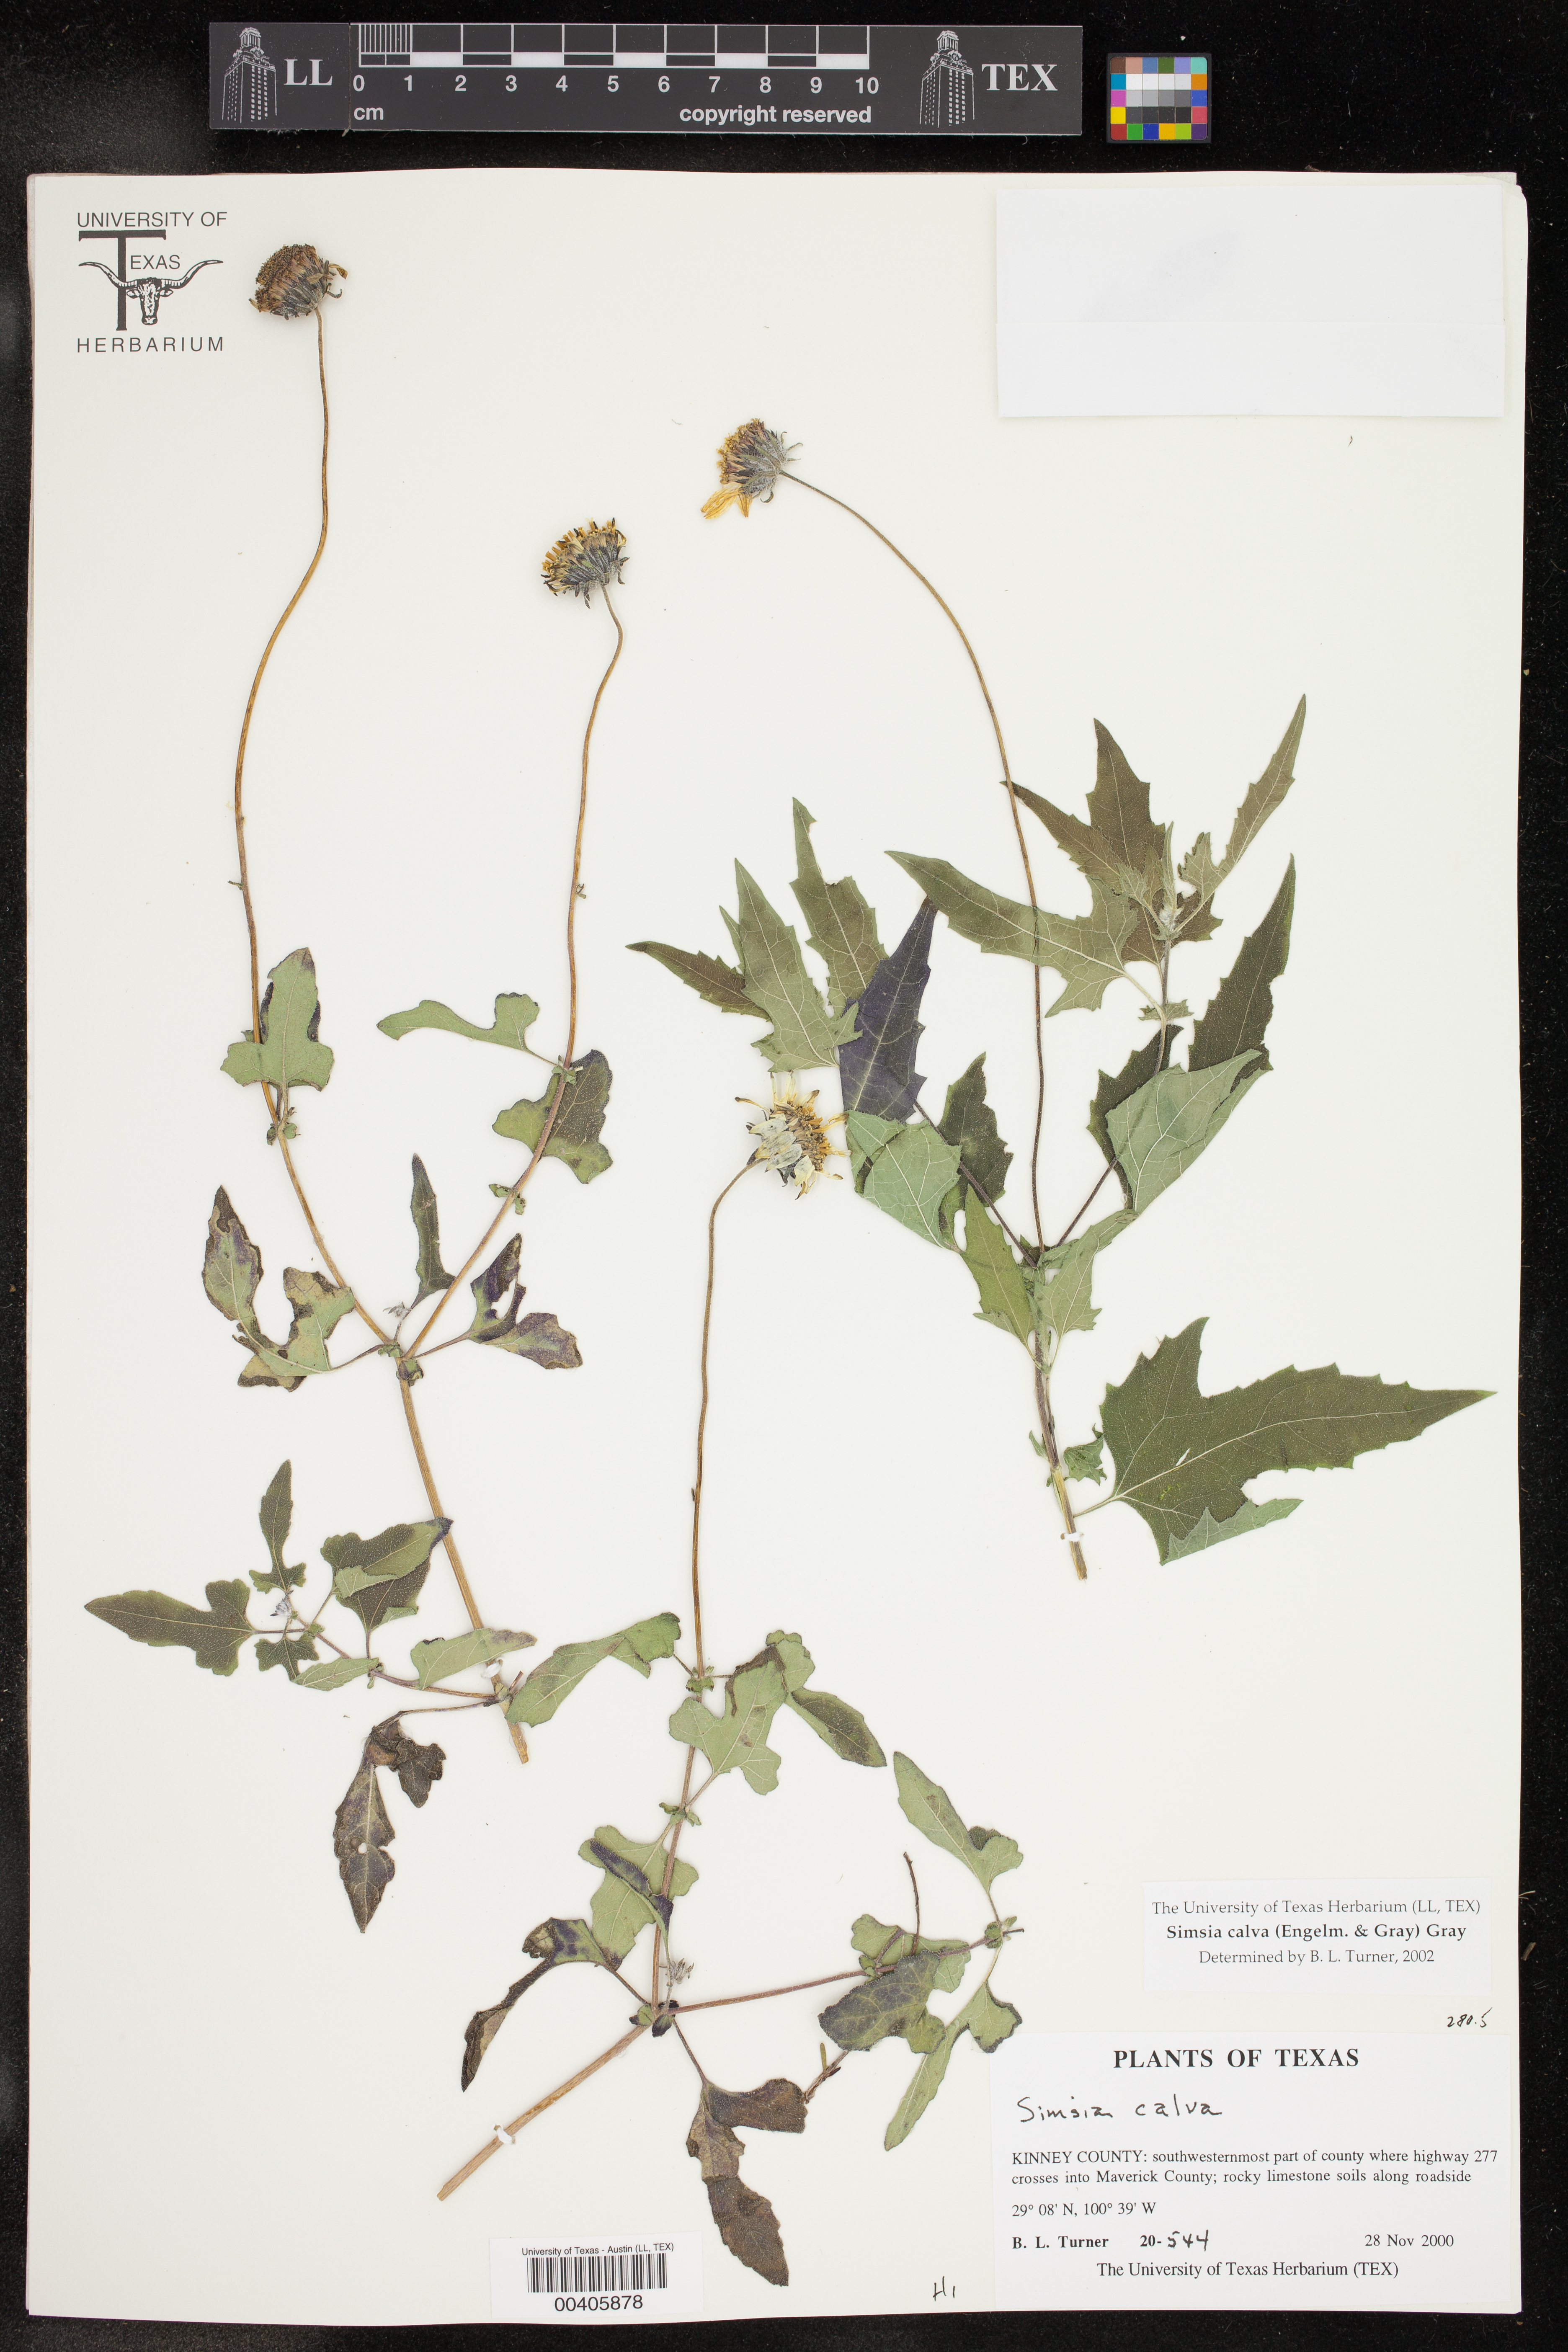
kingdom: Plantae
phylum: Tracheophyta
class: Magnoliopsida
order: Asterales
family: Asteraceae
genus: Simsia
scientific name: Simsia calva
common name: Awnless bush-sunflower
